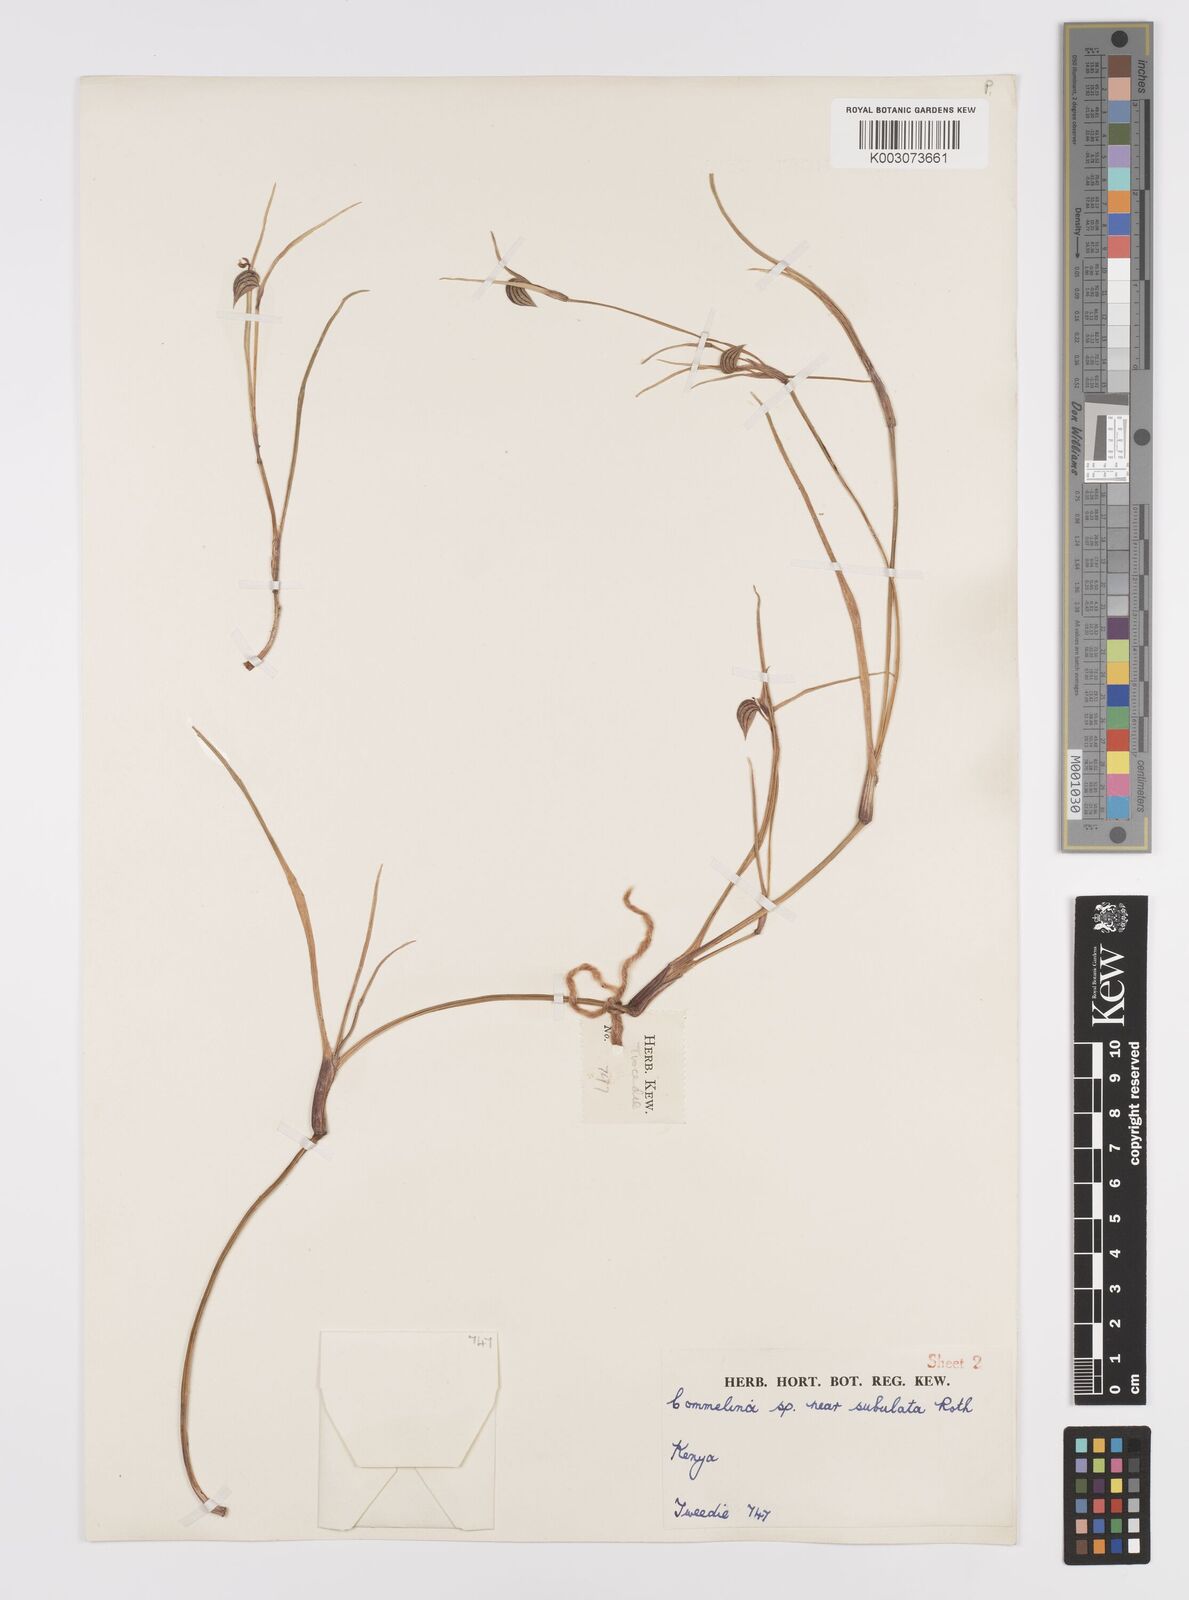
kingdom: Plantae
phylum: Tracheophyta
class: Liliopsida
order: Commelinales
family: Commelinaceae
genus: Commelina
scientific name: Commelina purpurea
